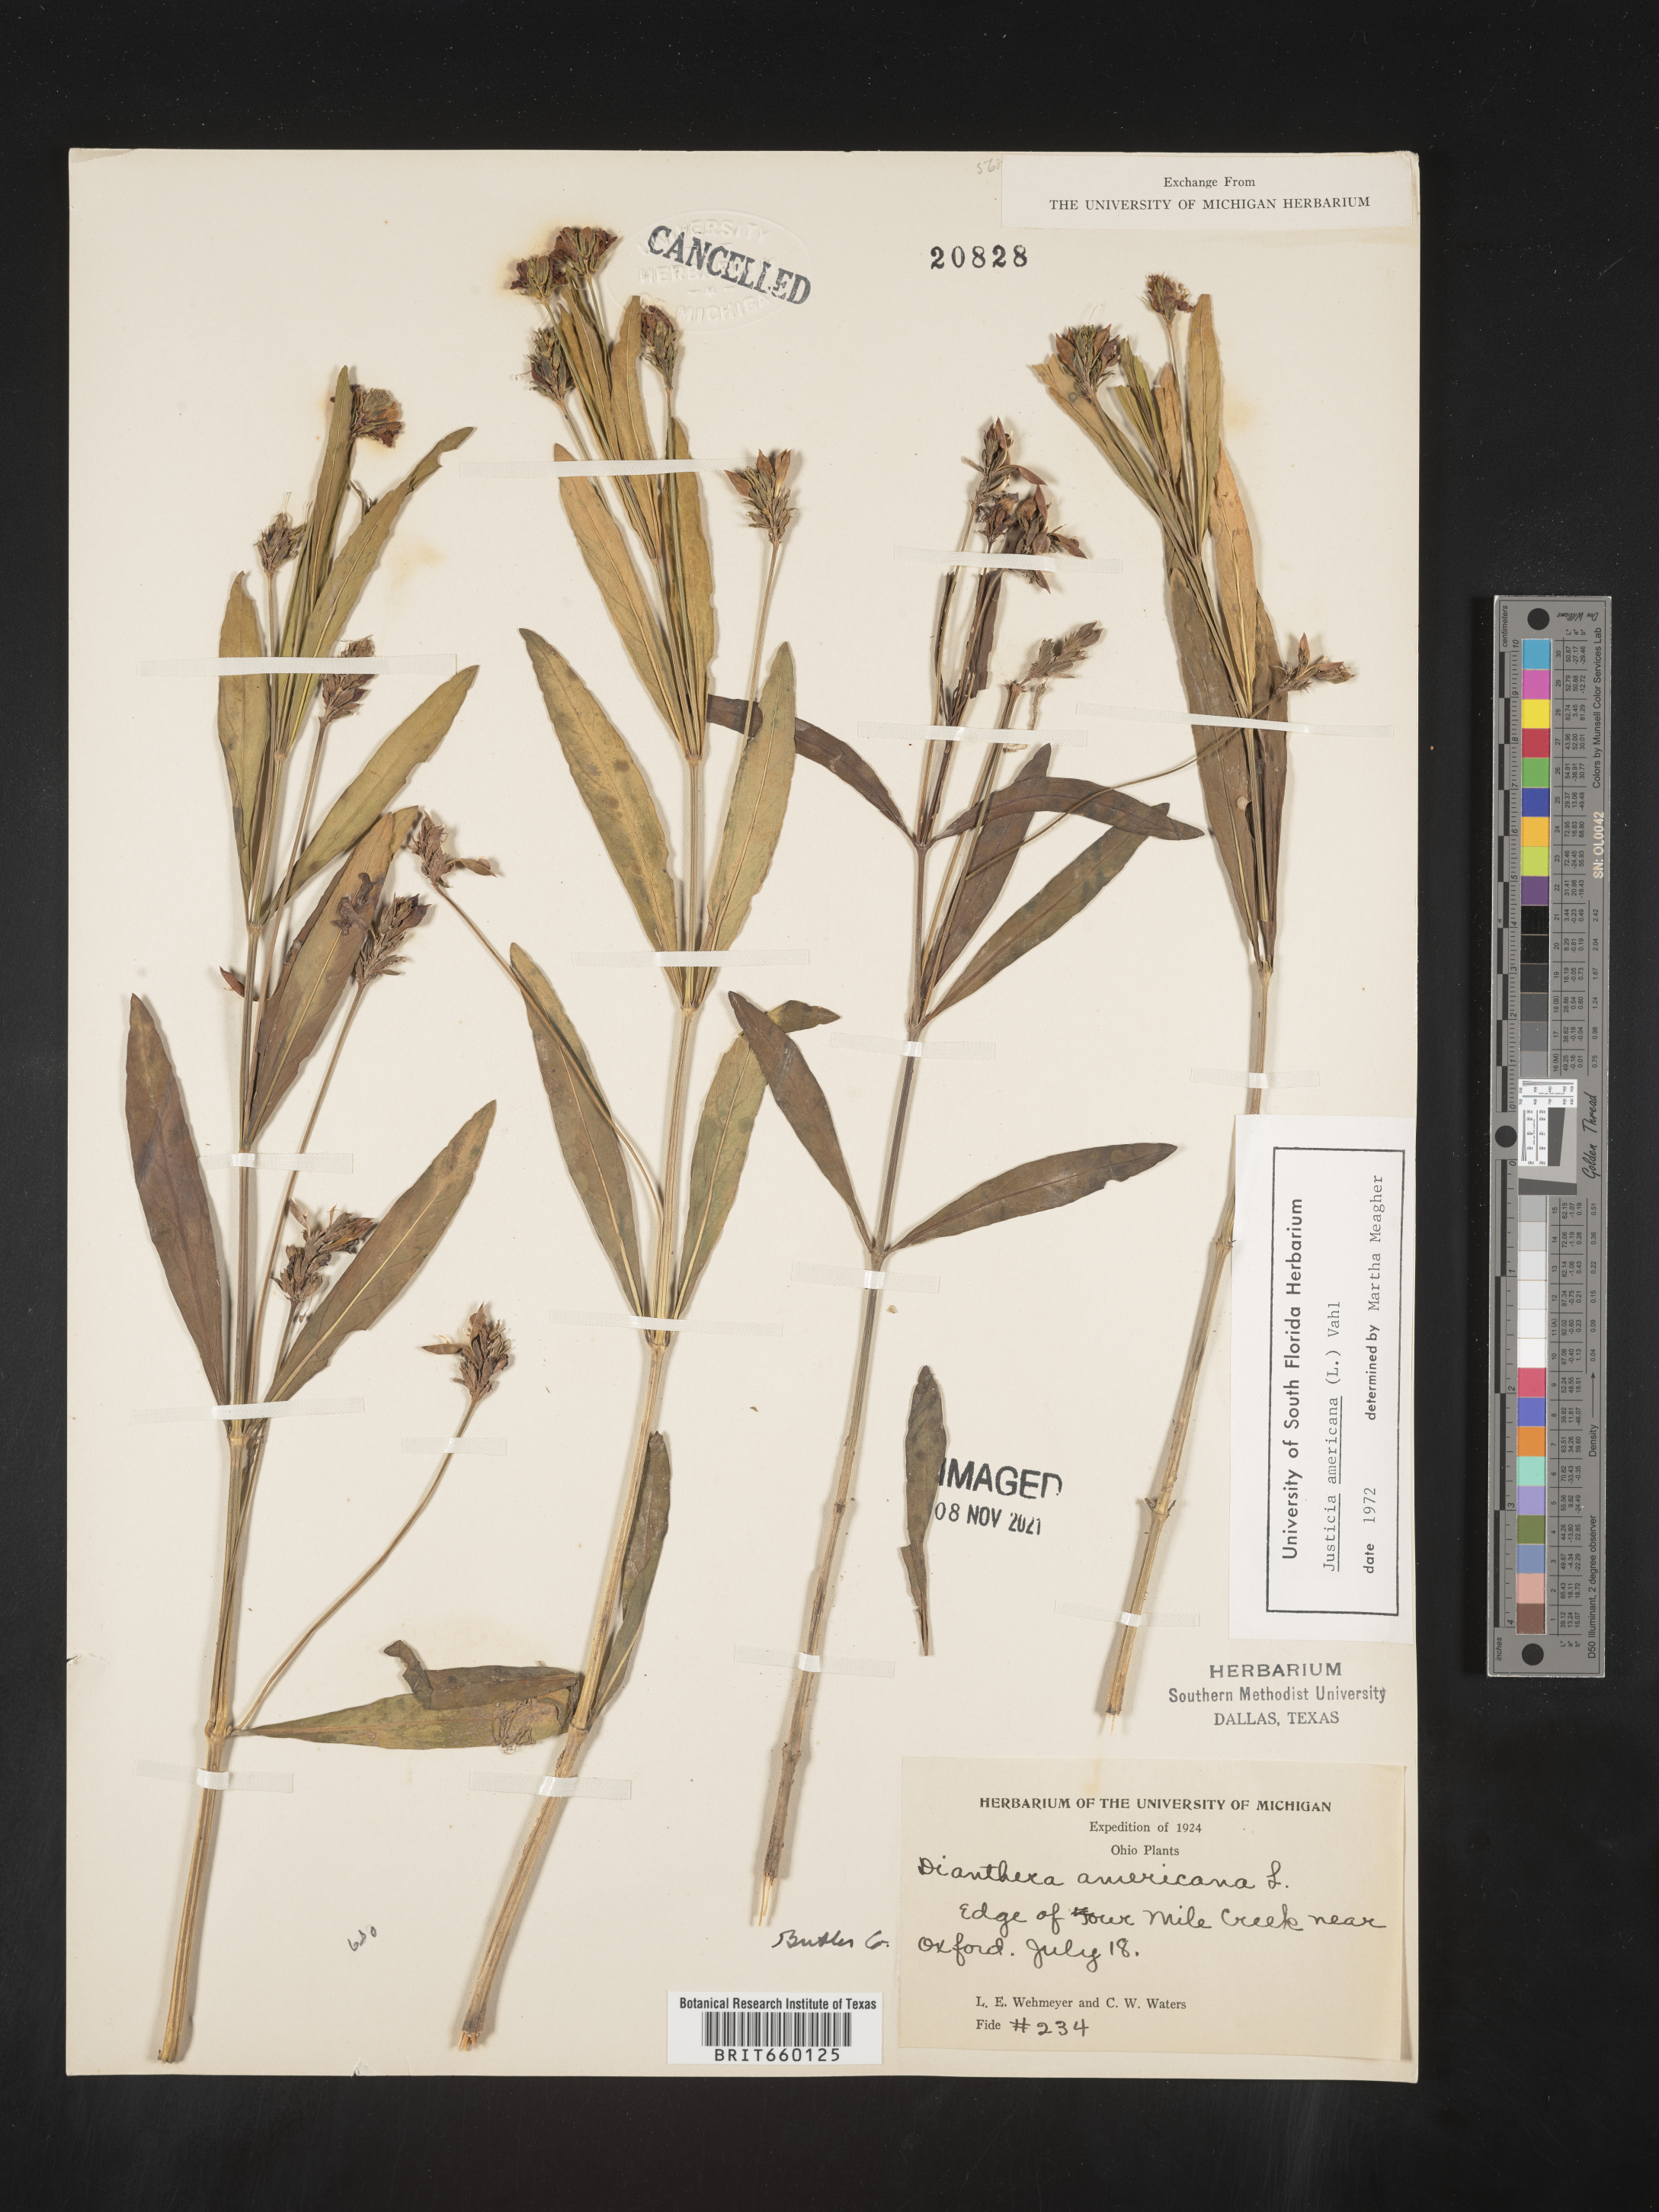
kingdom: Plantae
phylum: Tracheophyta
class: Magnoliopsida
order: Lamiales
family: Acanthaceae
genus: Dianthera
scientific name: Dianthera americana
